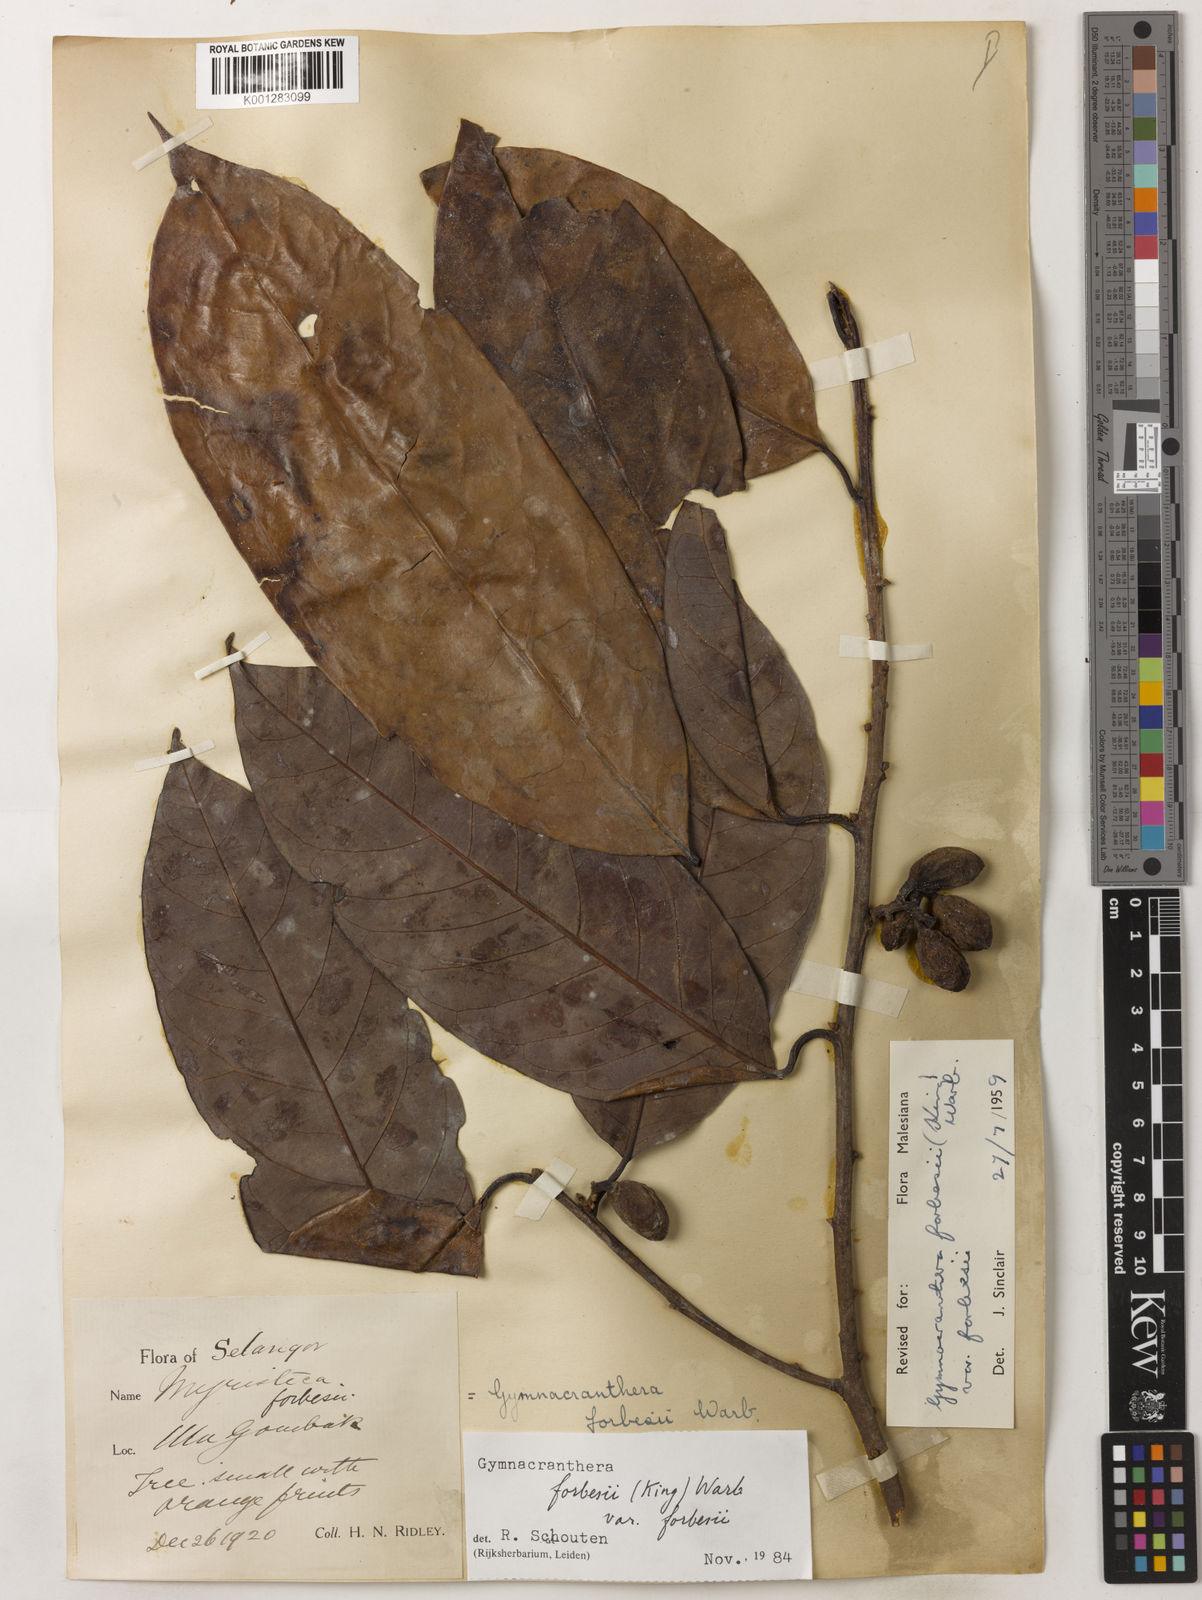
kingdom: Plantae
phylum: Tracheophyta
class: Magnoliopsida
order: Magnoliales
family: Myristicaceae
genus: Gymnacranthera
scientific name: Gymnacranthera forbesii
